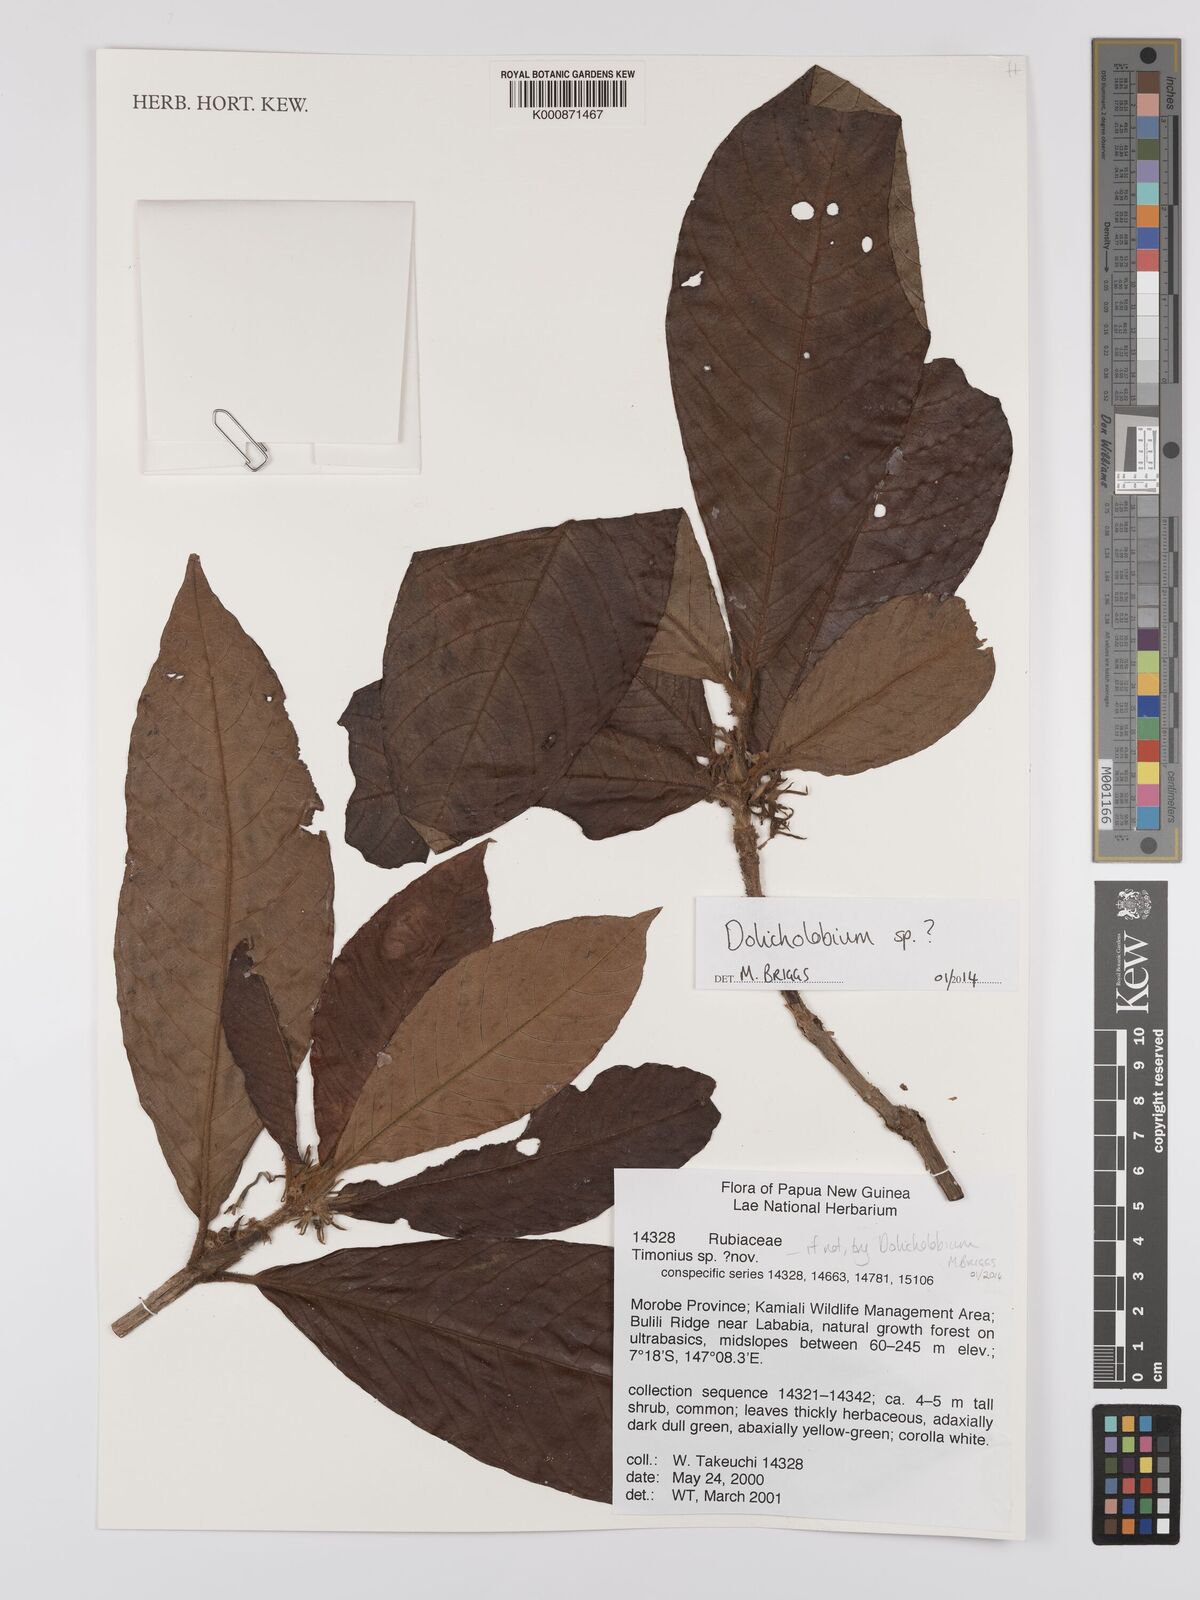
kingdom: Plantae
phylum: Tracheophyta
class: Magnoliopsida
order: Gentianales
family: Rubiaceae
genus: Dolicholobium
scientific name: Dolicholobium
